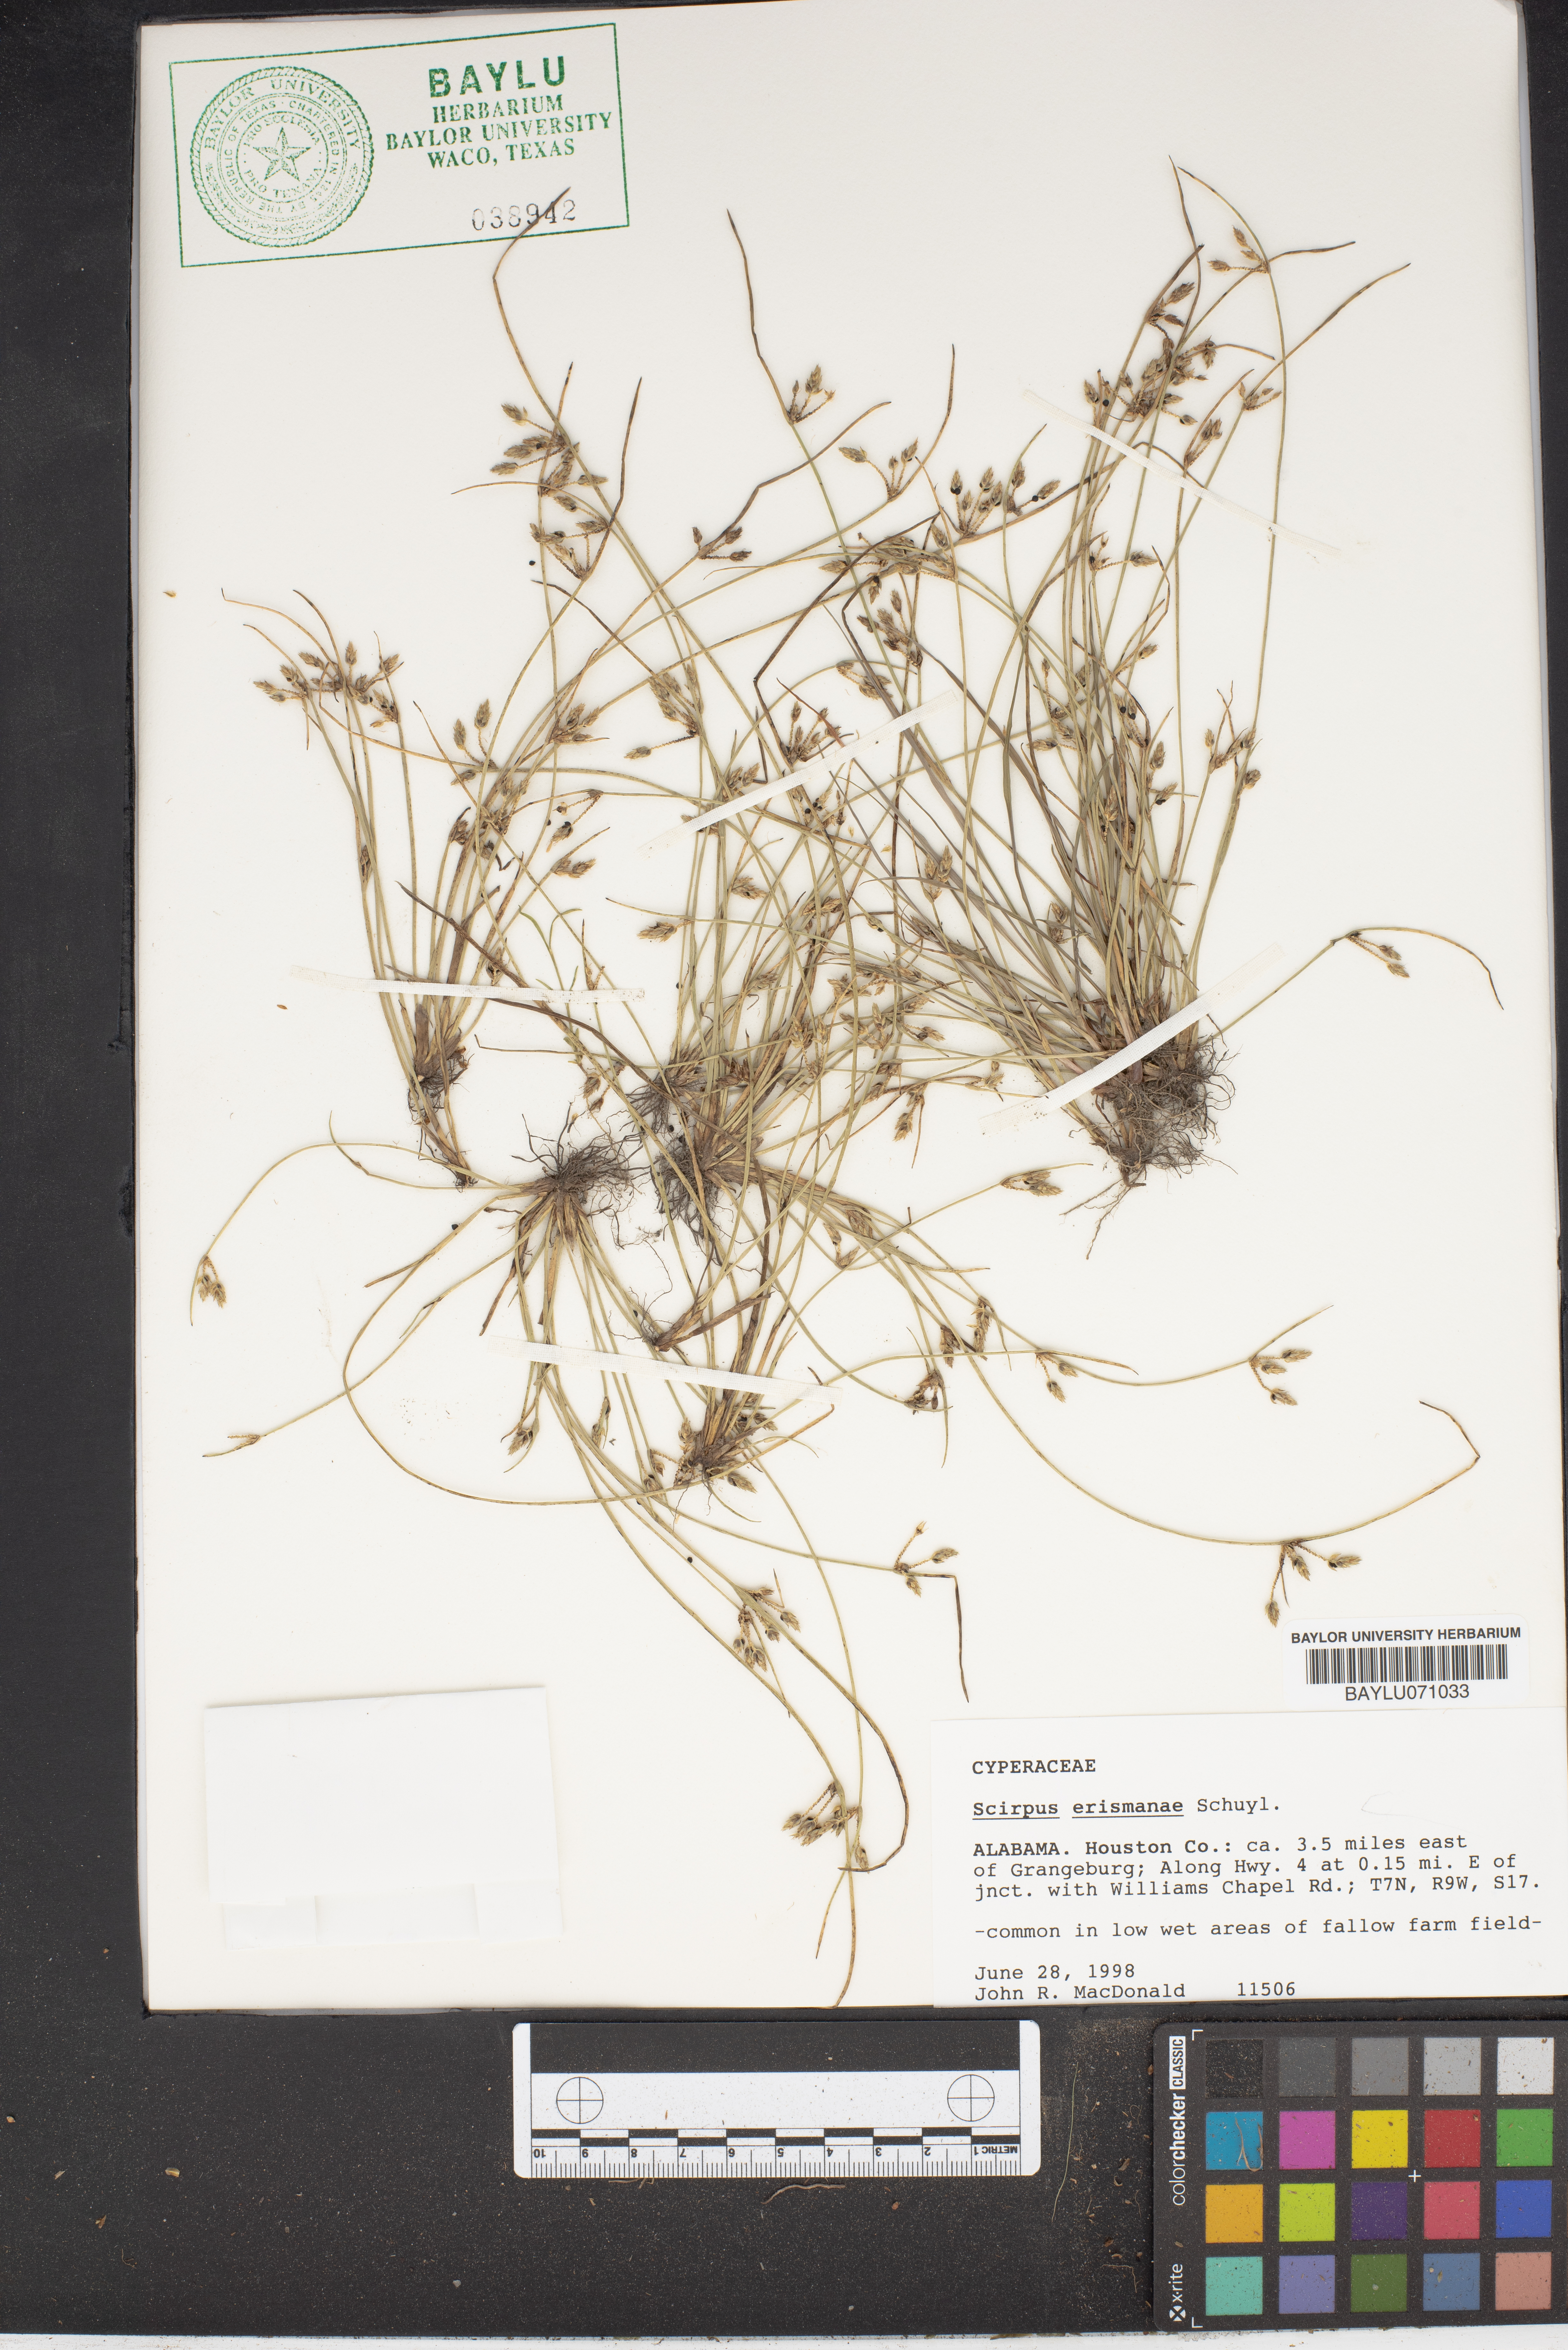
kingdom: Plantae
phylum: Tracheophyta
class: Liliopsida
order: Poales
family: Cyperaceae
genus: Schoenoplectiella
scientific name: Schoenoplectiella erecta
